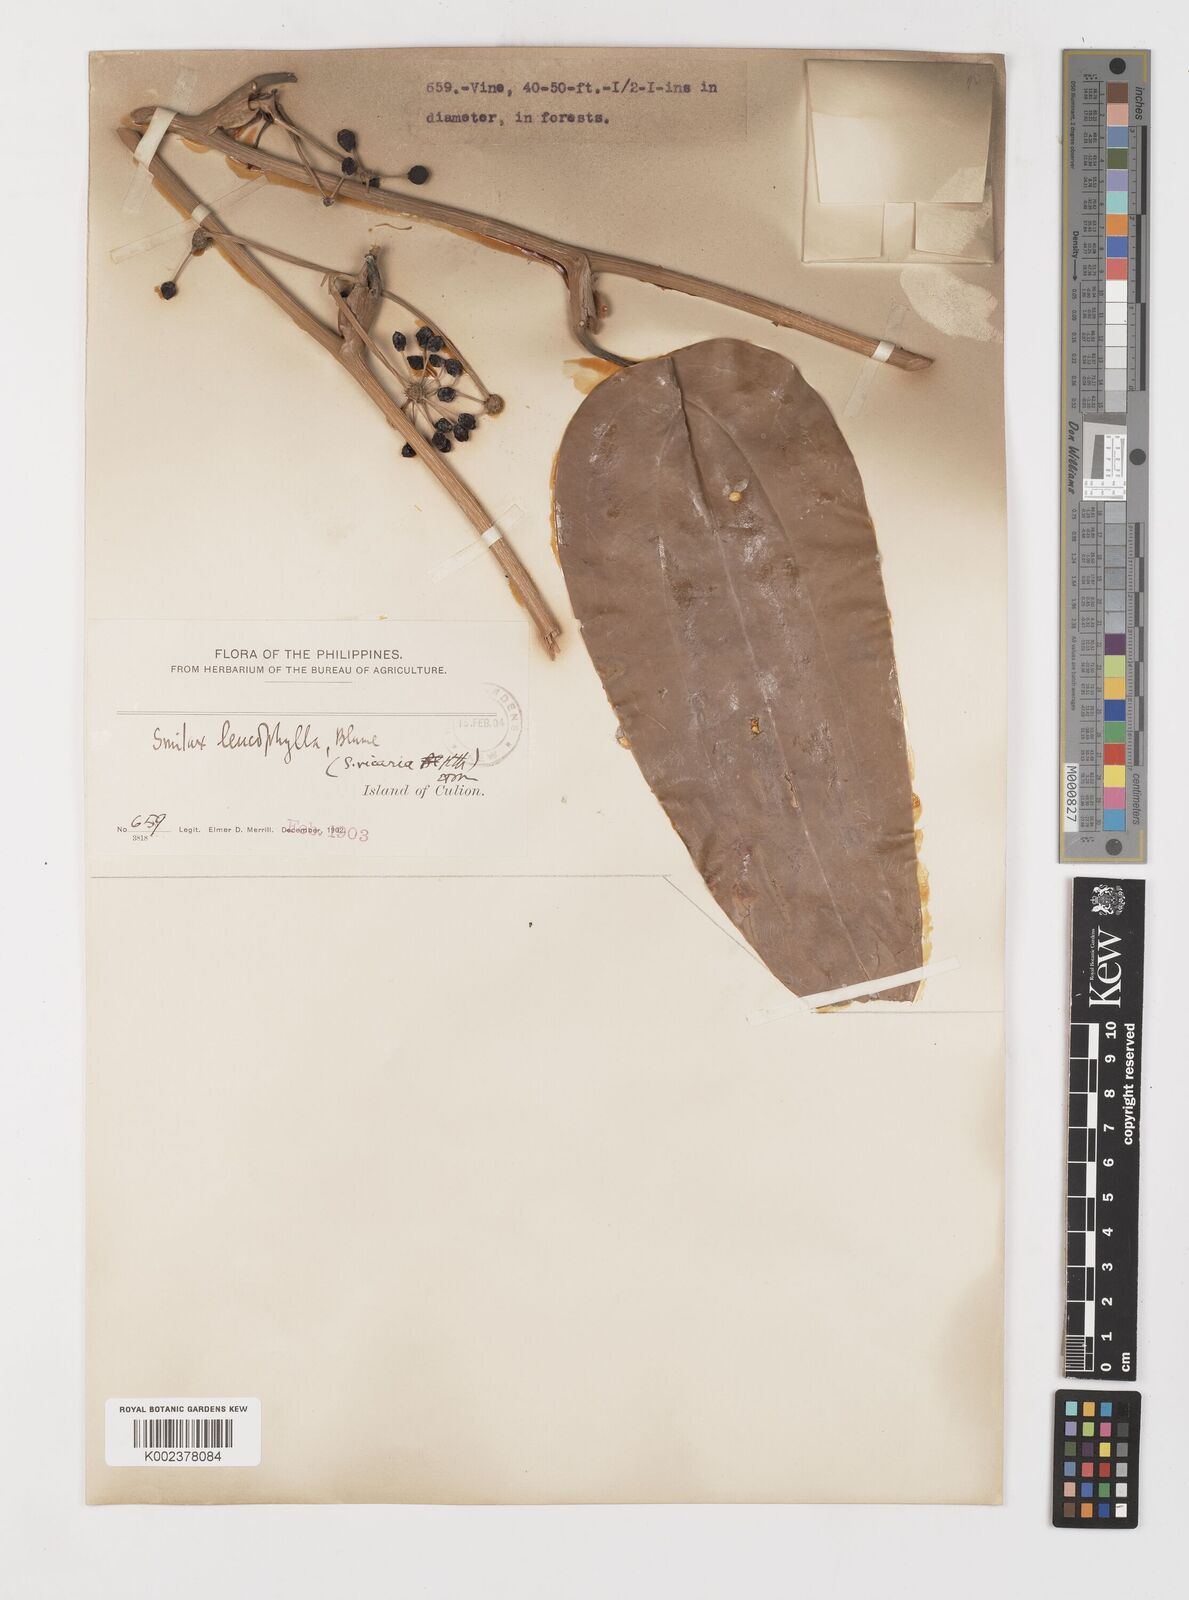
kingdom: Plantae
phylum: Tracheophyta
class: Liliopsida
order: Liliales
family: Smilacaceae
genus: Smilax
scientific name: Smilax leucophylla
